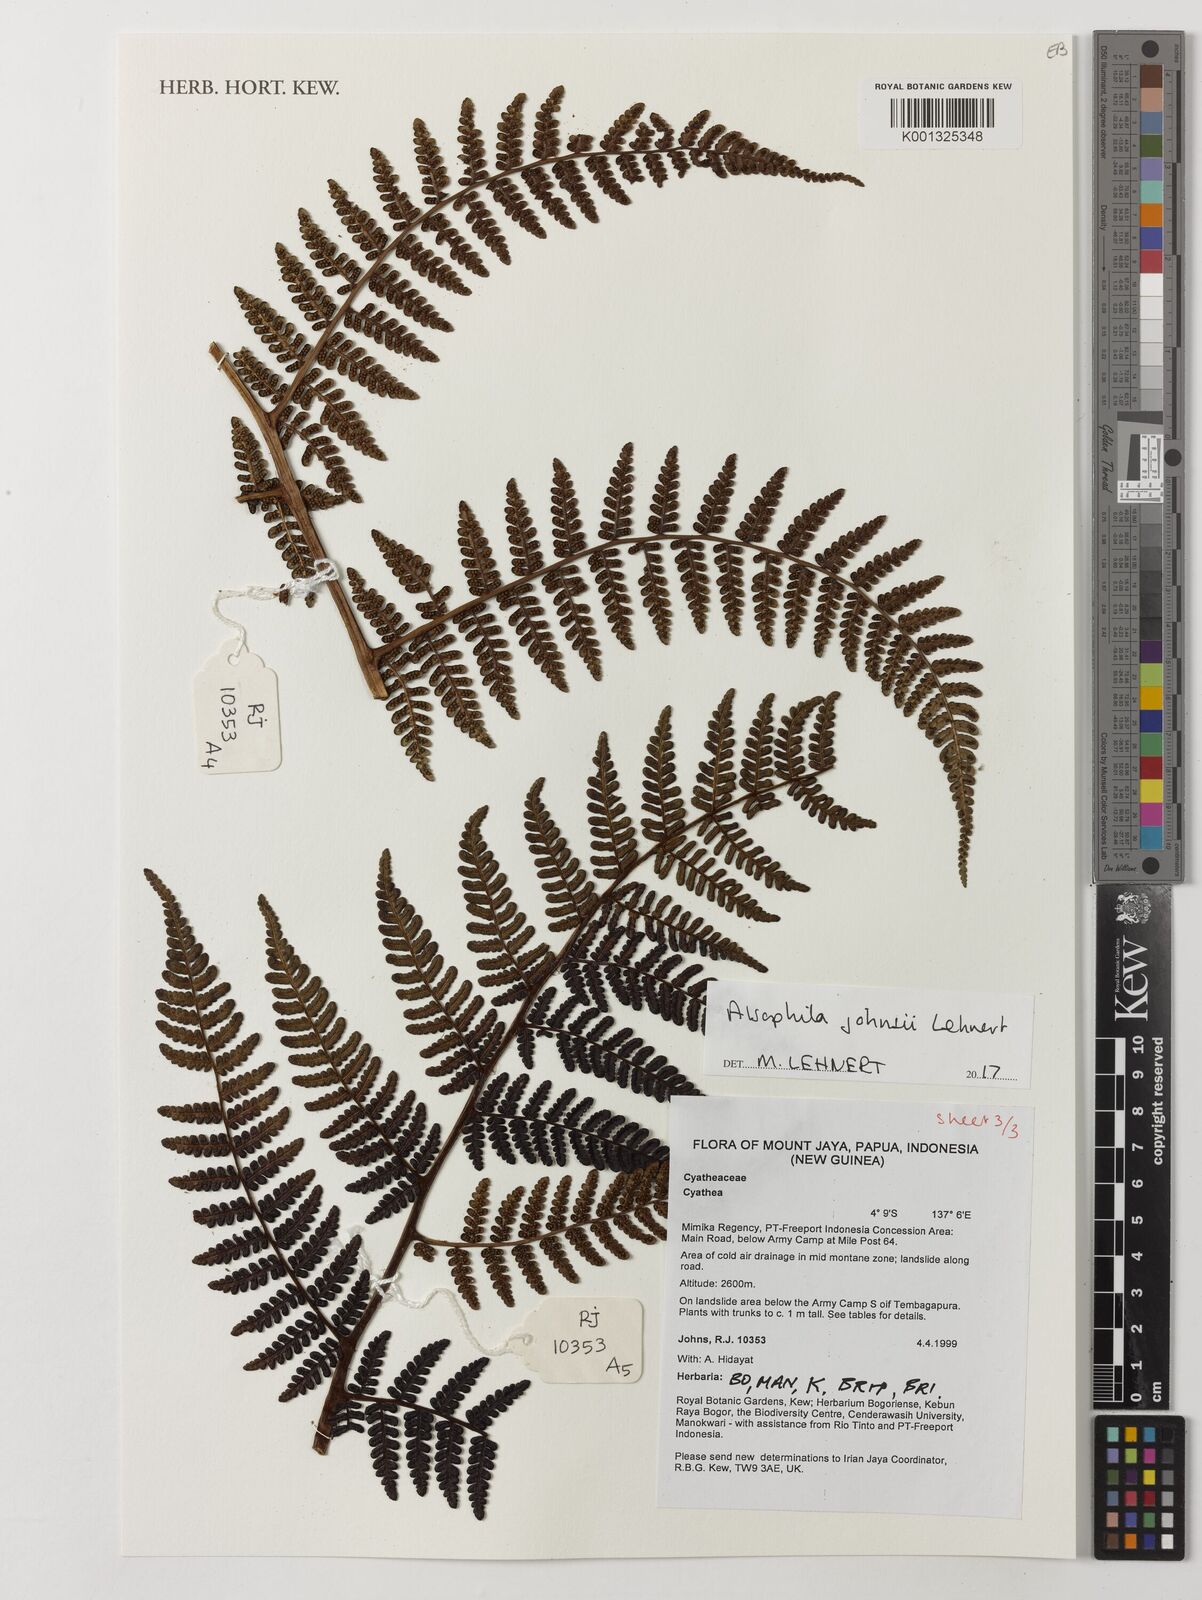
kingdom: Plantae
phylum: Tracheophyta
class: Polypodiopsida
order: Cyatheales
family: Cyatheaceae
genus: Alsophila
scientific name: Alsophila johnsii
